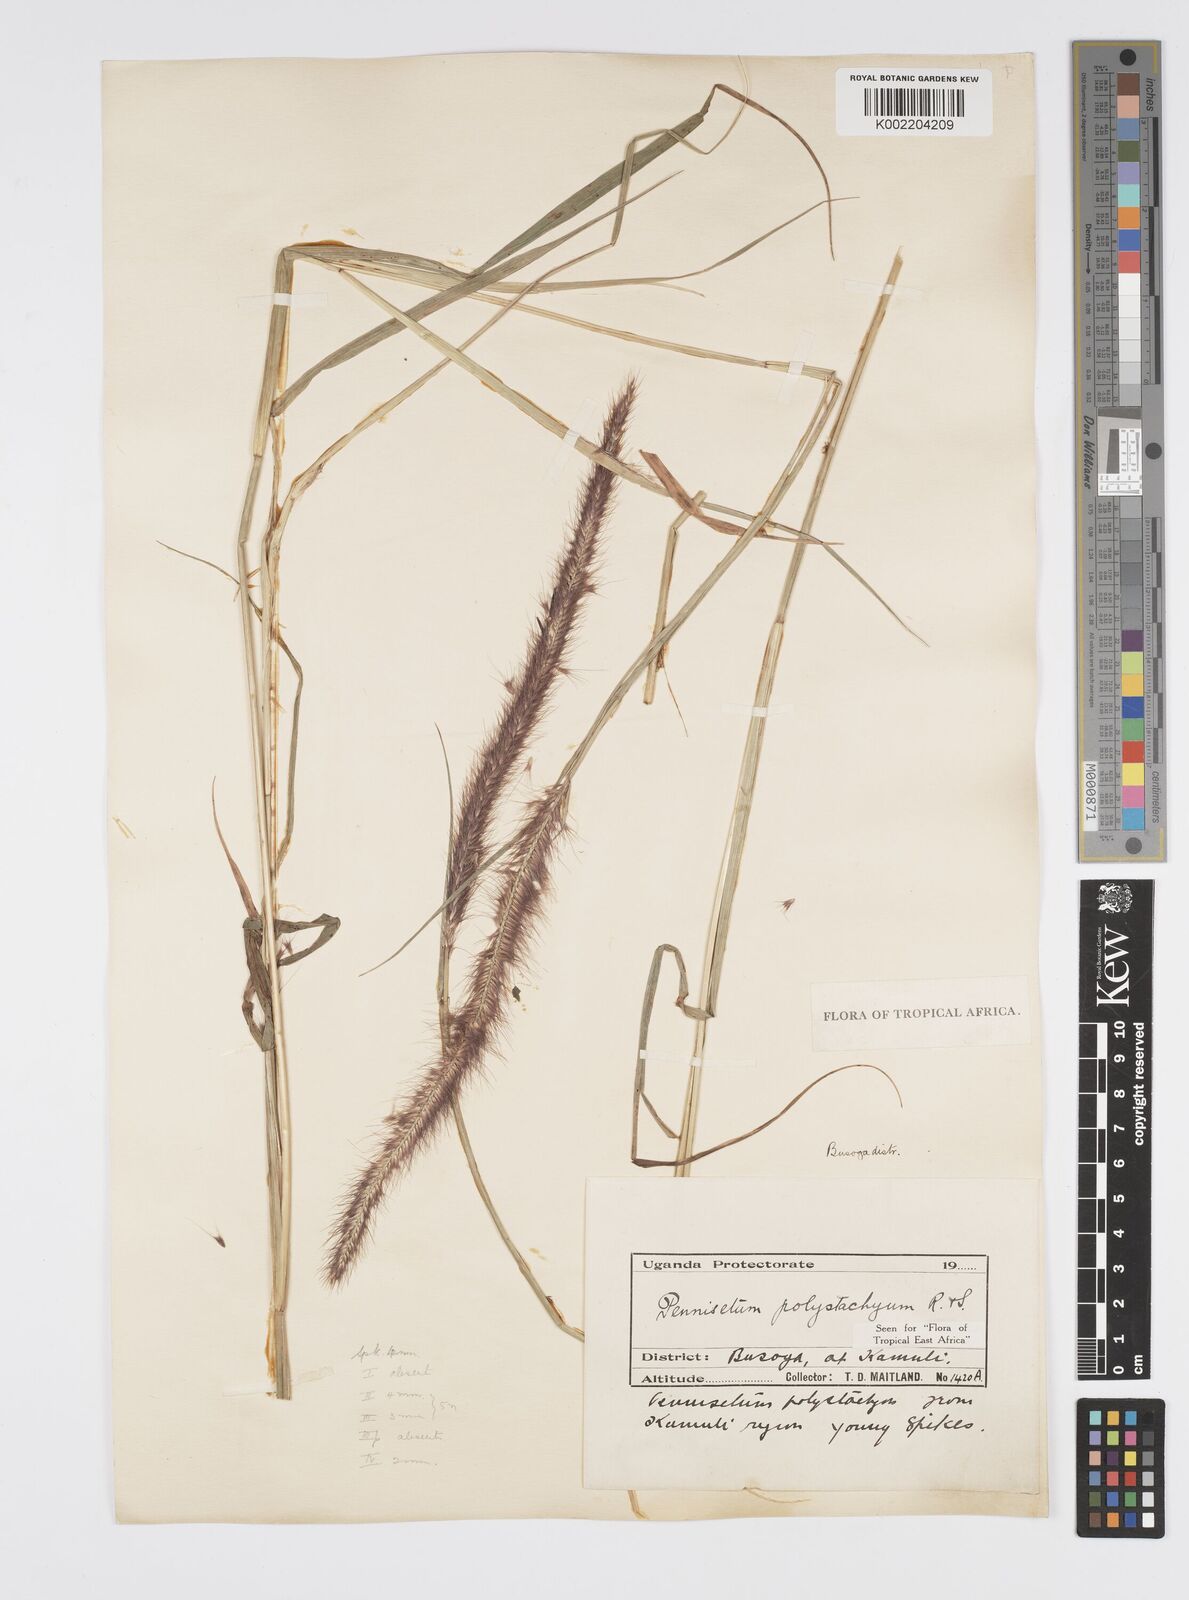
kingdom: Plantae
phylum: Tracheophyta
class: Liliopsida
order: Poales
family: Poaceae
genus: Setaria
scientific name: Setaria parviflora
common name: Knotroot bristle-grass
